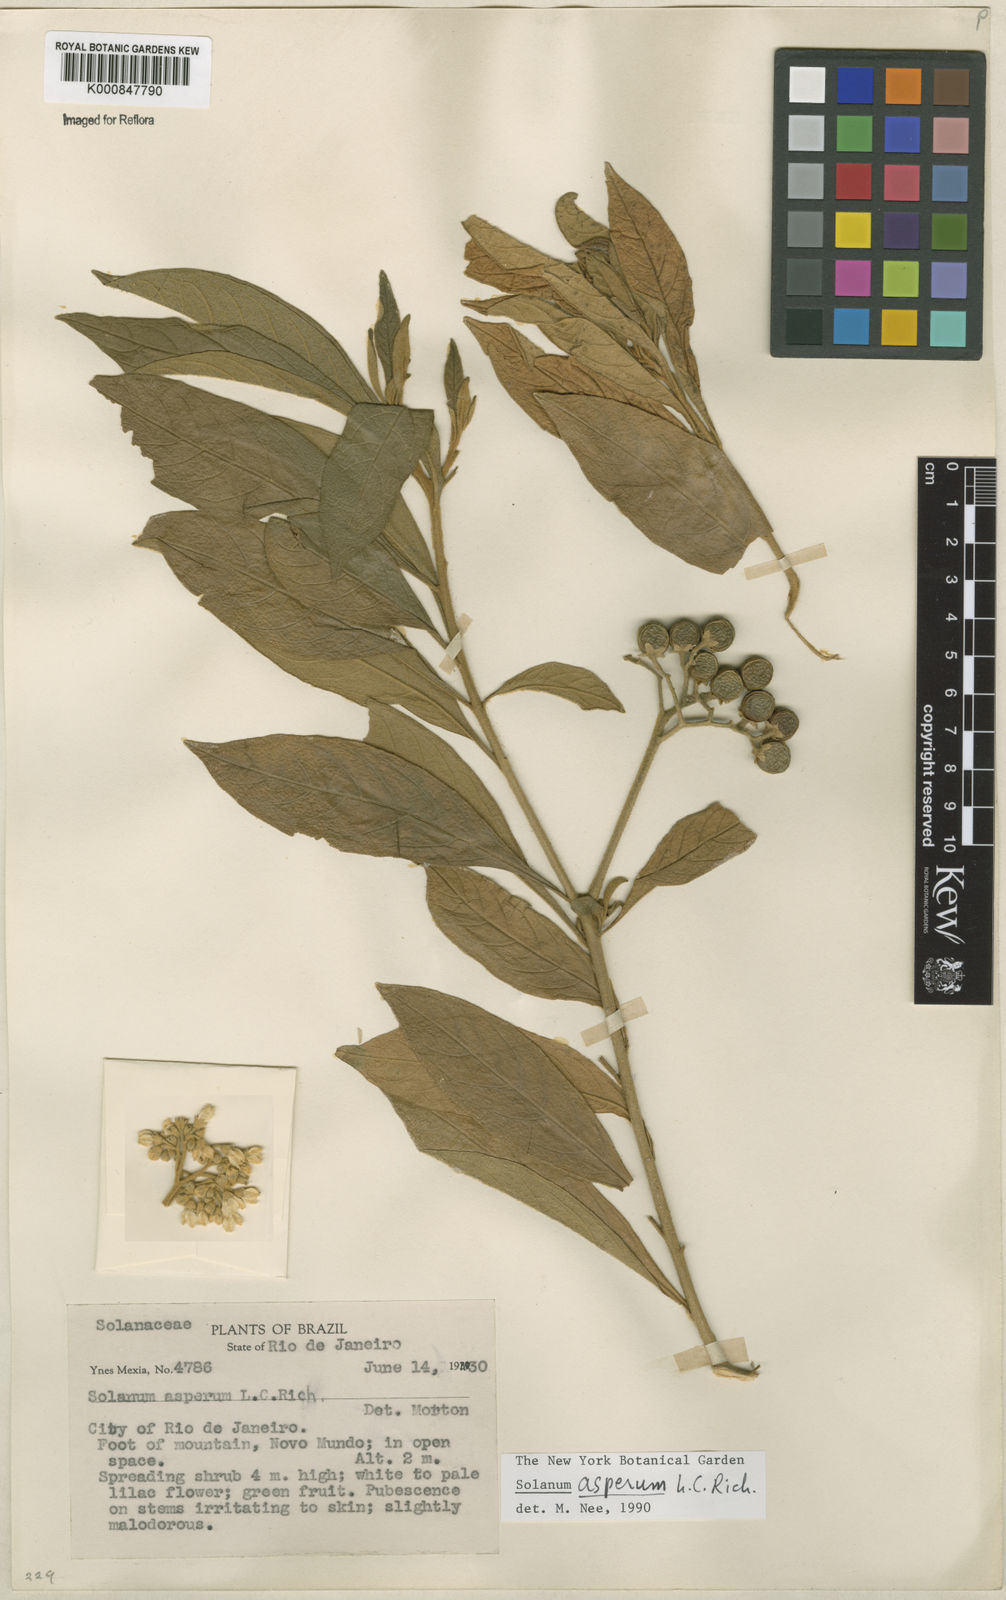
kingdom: Plantae
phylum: Tracheophyta
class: Magnoliopsida
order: Solanales
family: Solanaceae
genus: Solanum
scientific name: Solanum asperum
